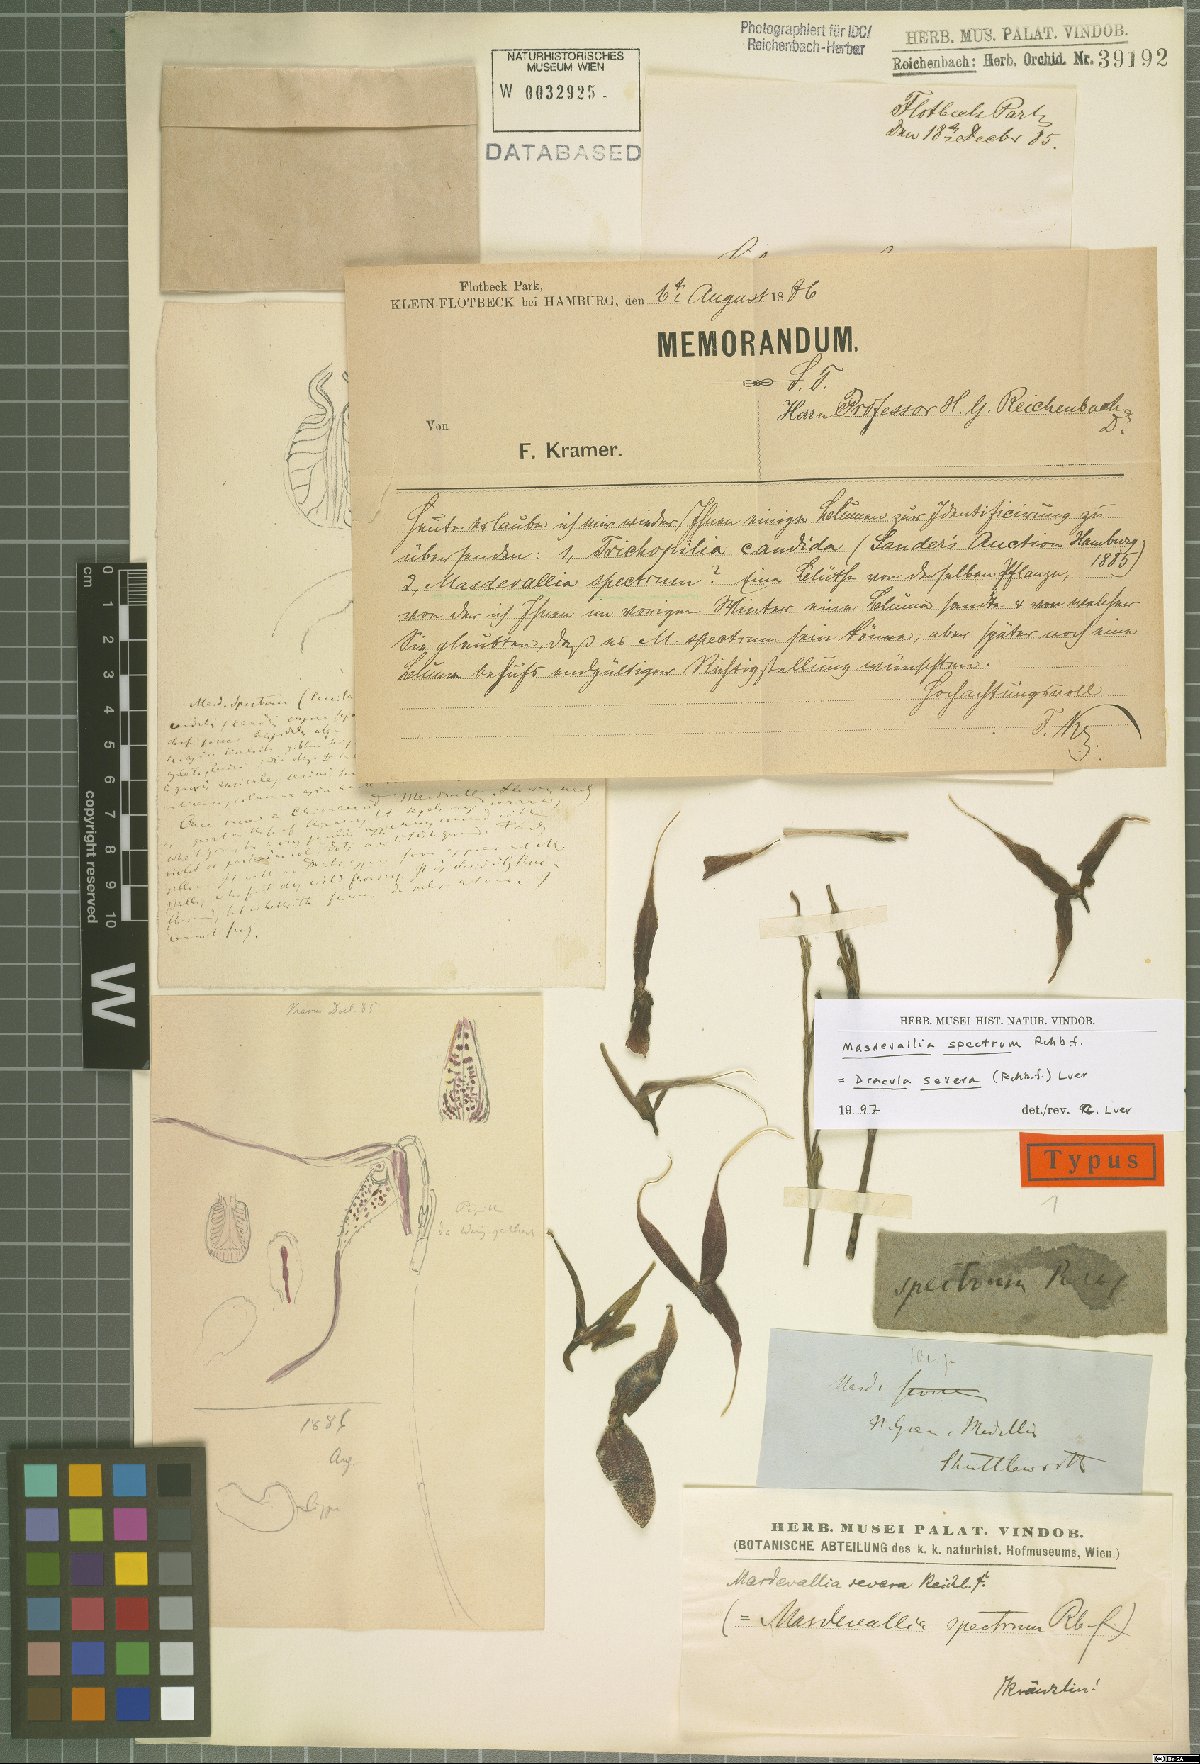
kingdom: Plantae
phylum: Tracheophyta
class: Liliopsida
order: Asparagales
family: Orchidaceae
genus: Dracula
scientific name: Dracula spectrum
